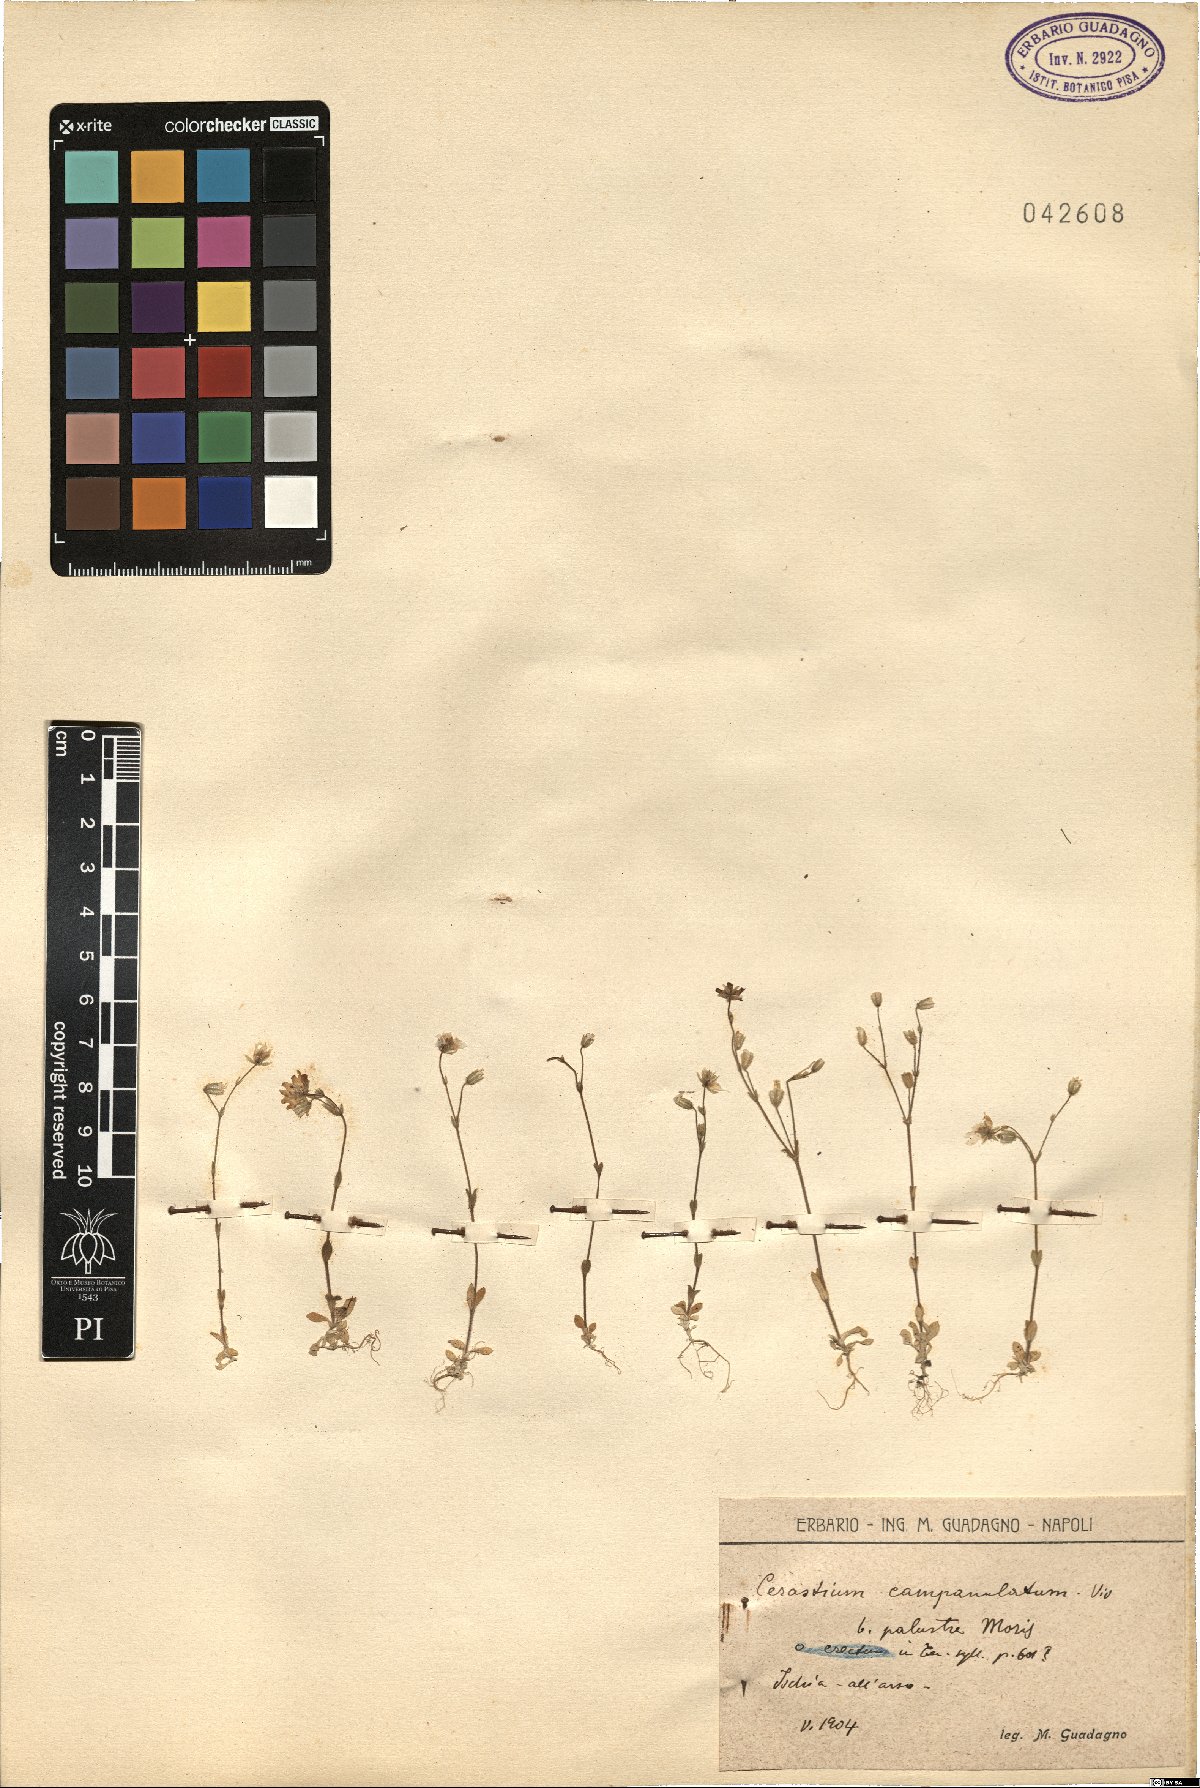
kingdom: Plantae
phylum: Tracheophyta
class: Magnoliopsida
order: Caryophyllales
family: Caryophyllaceae
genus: Cerastium
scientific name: Cerastium ligusticum
